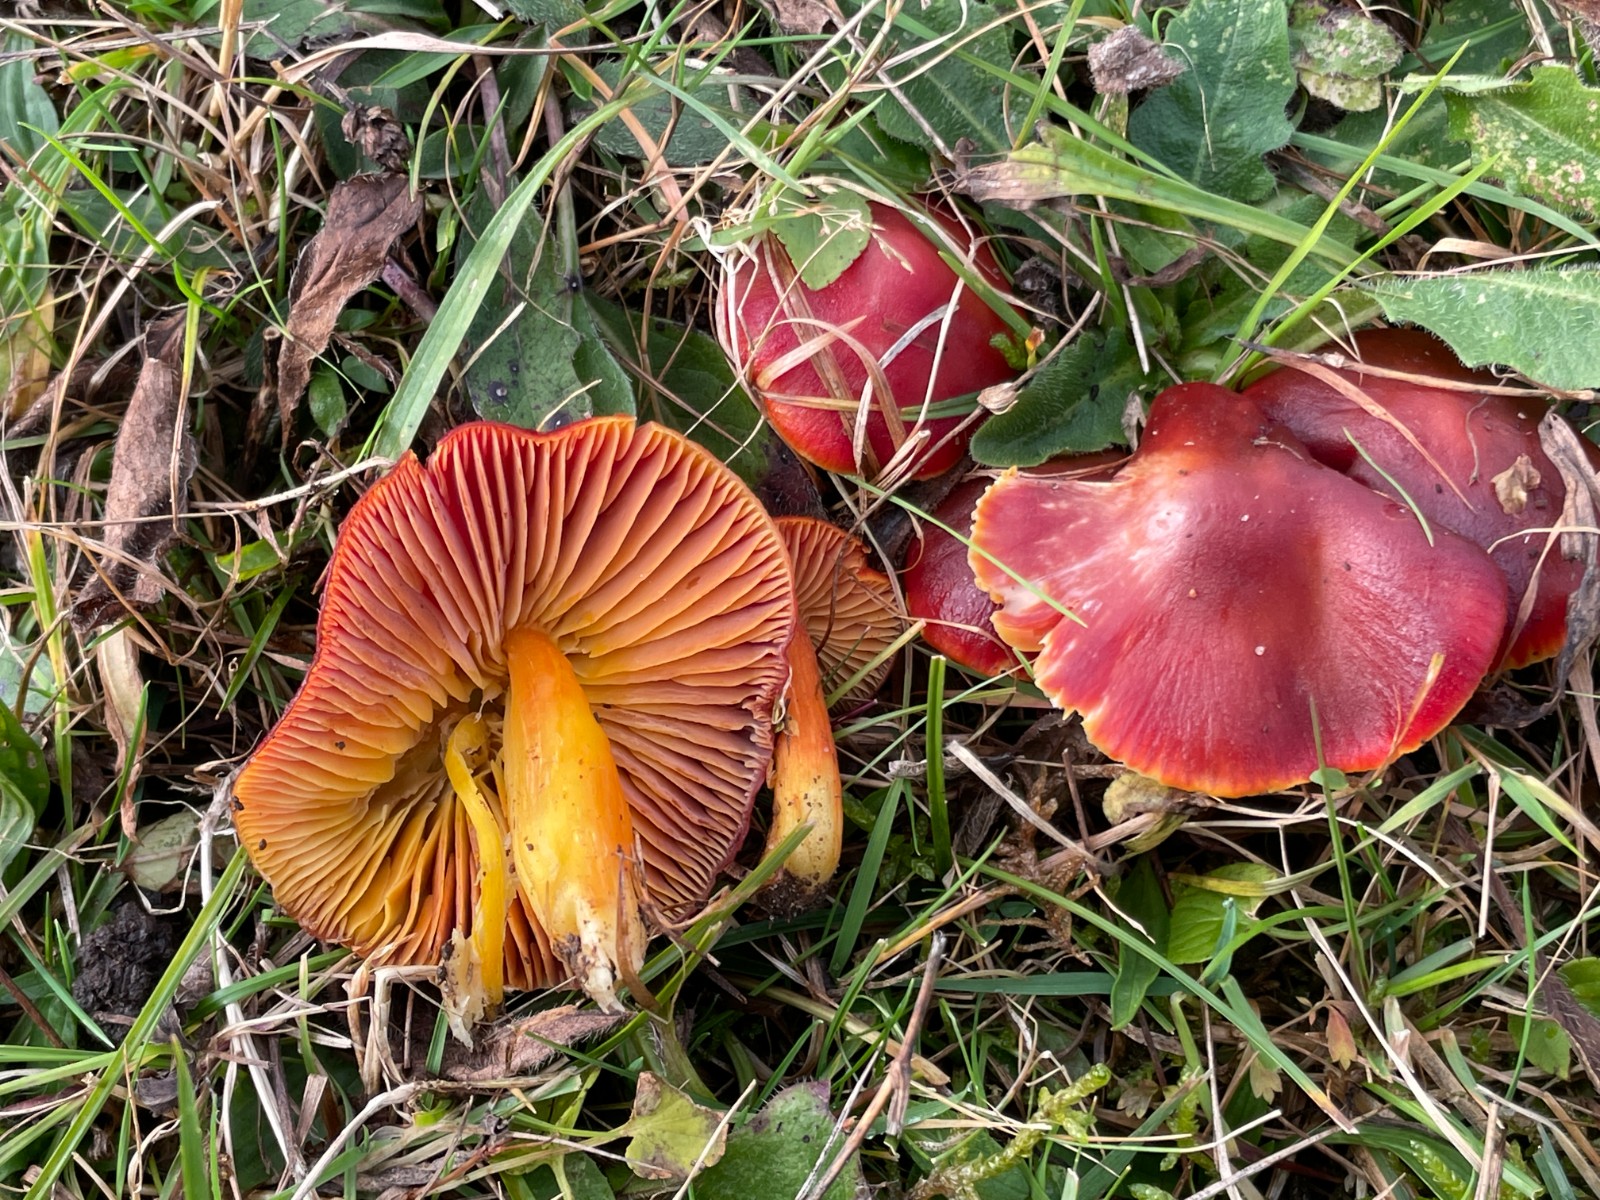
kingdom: Fungi
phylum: Basidiomycota
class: Agaricomycetes
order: Agaricales
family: Hygrophoraceae
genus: Hygrocybe
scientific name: Hygrocybe punicea
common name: skarlagen-vokshat
